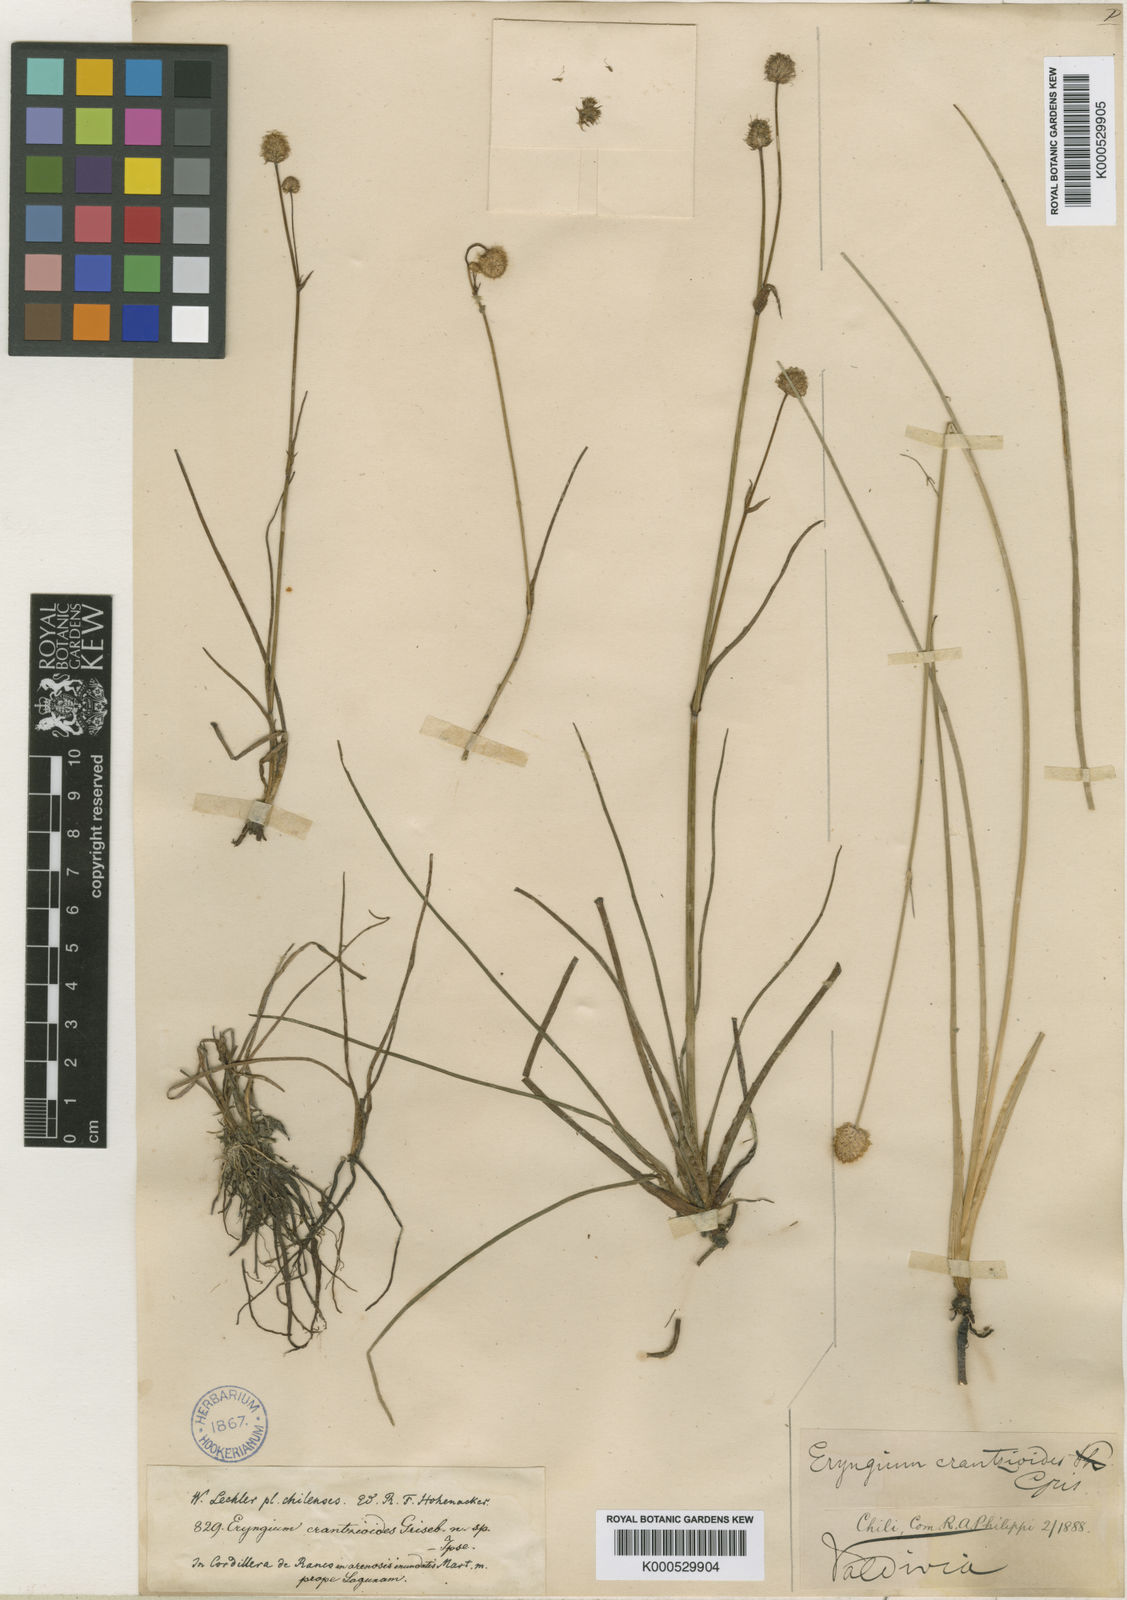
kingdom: Plantae
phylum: Tracheophyta
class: Magnoliopsida
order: Apiales
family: Apiaceae
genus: Eryngium
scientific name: Eryngium pseudojunceum
